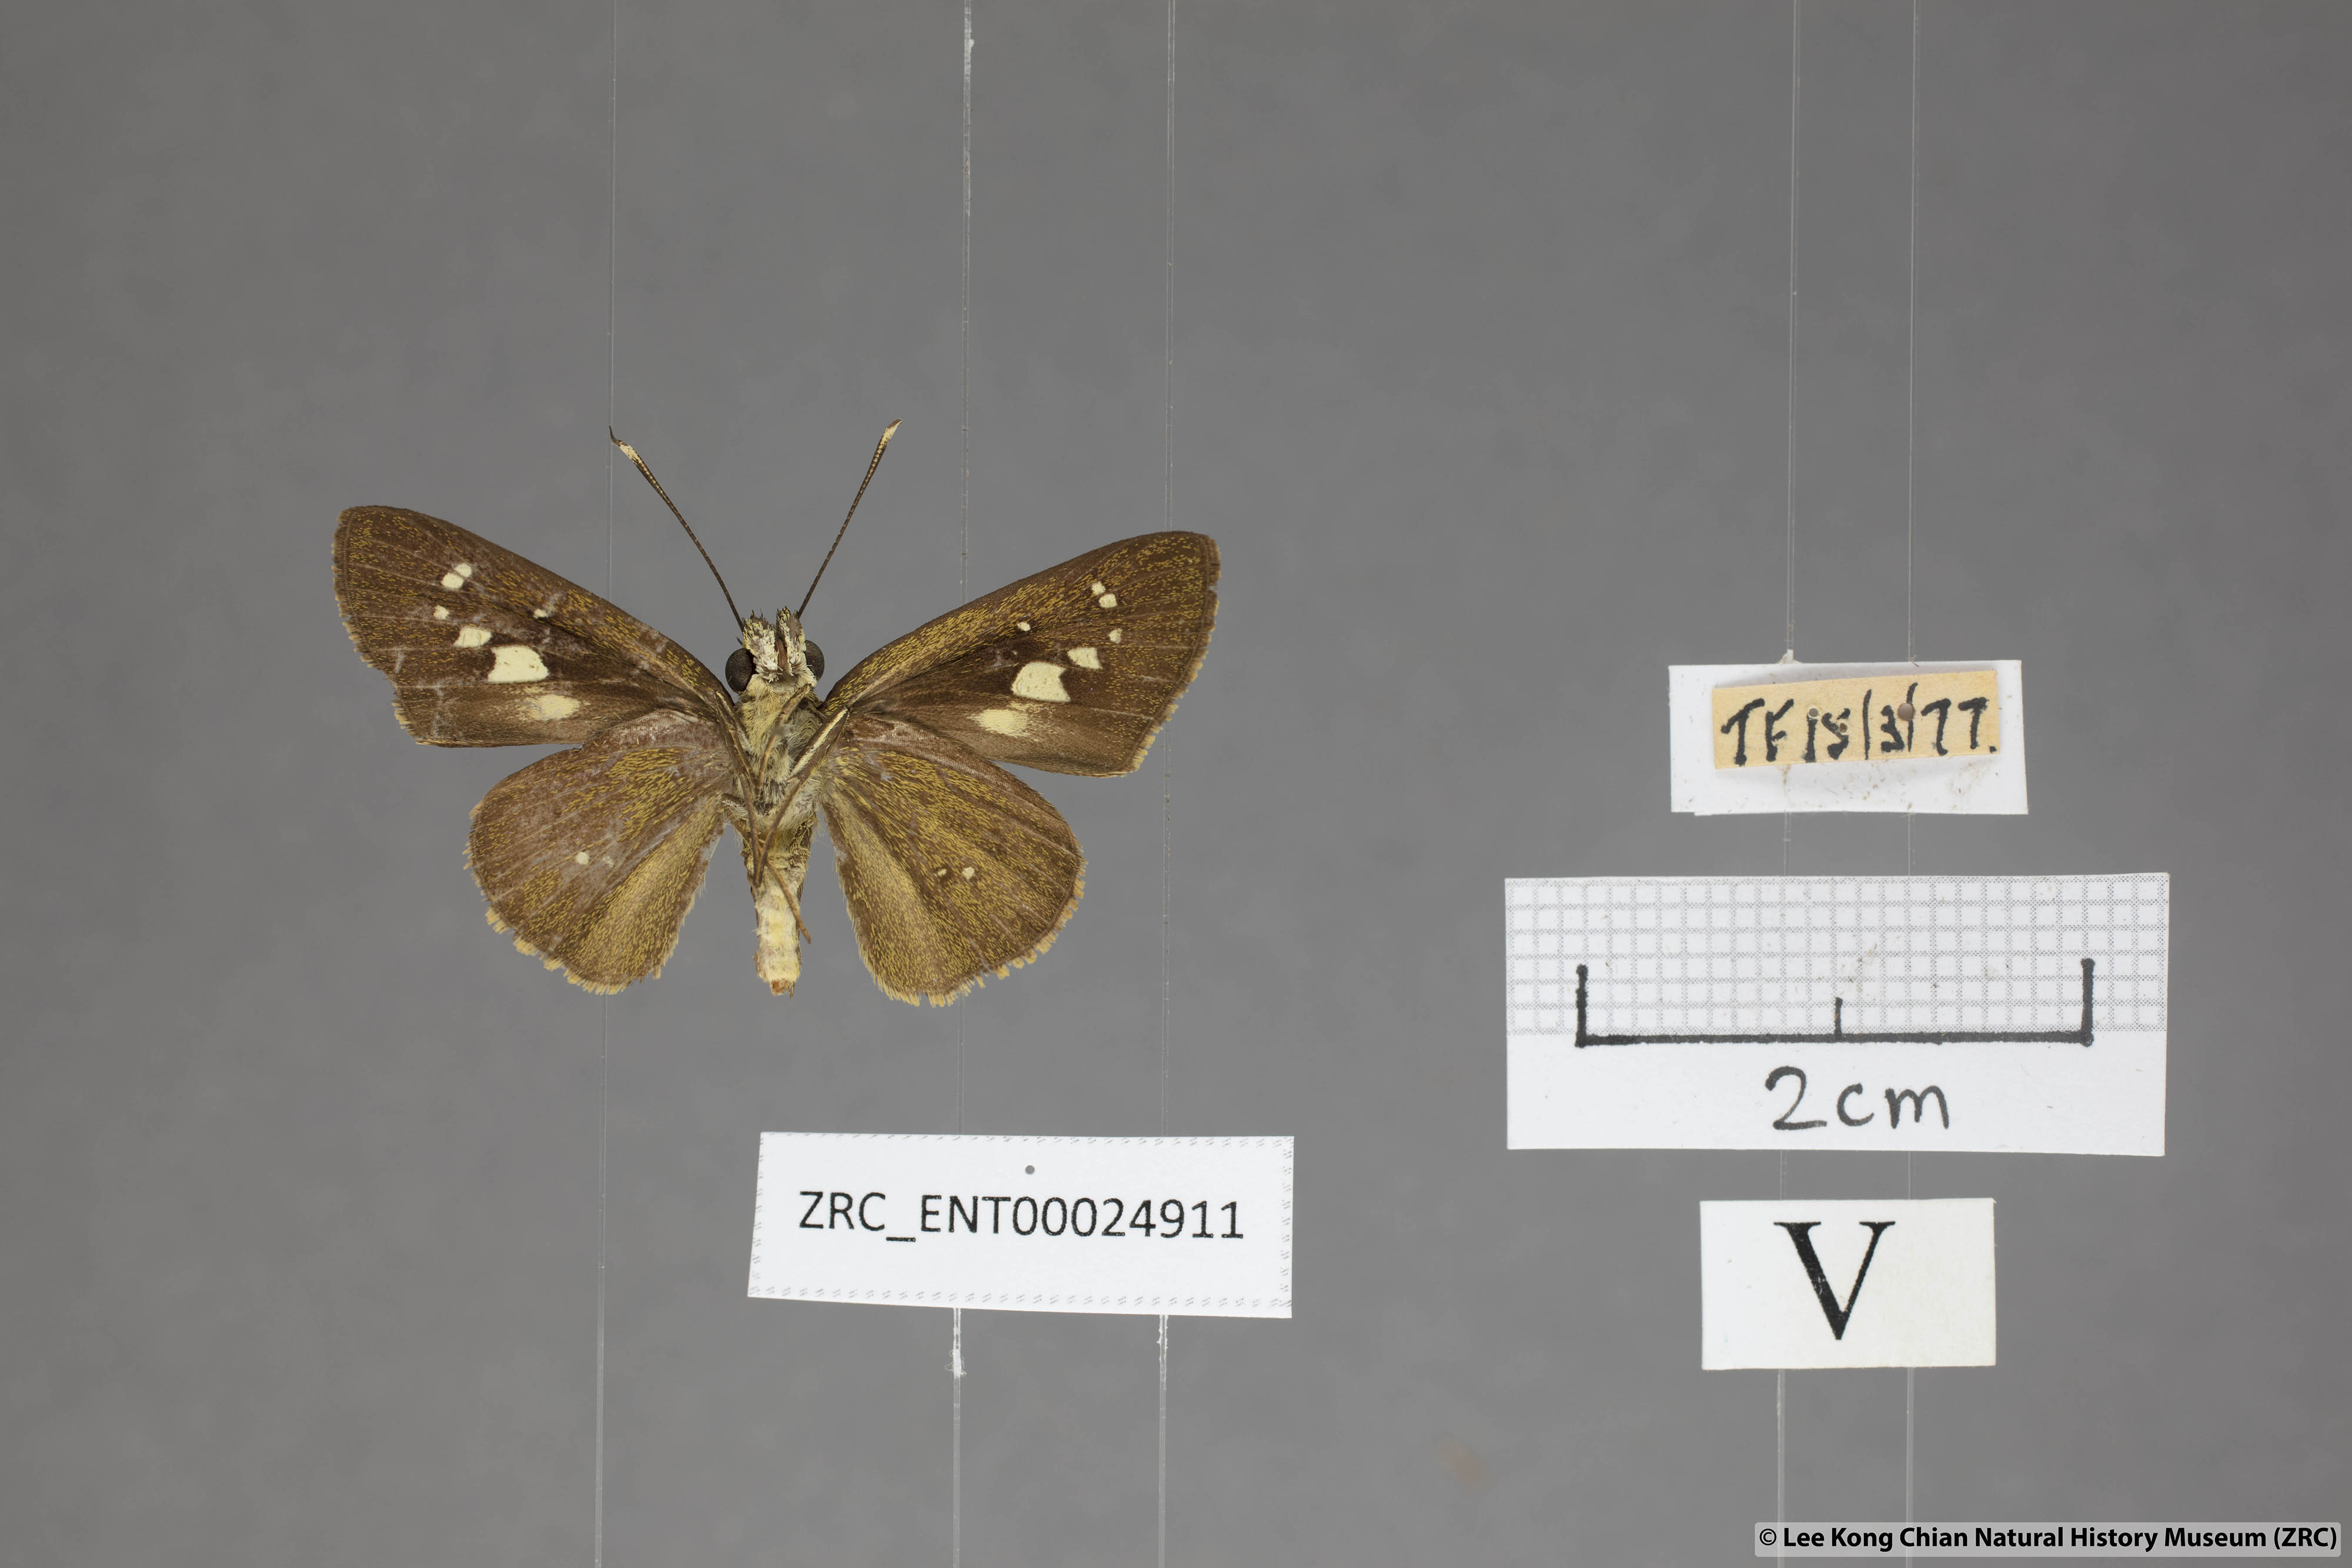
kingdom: Animalia
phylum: Arthropoda
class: Insecta
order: Lepidoptera
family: Hesperiidae
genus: Isma
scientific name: Isma umbrosa
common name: Large long-banded flitter
